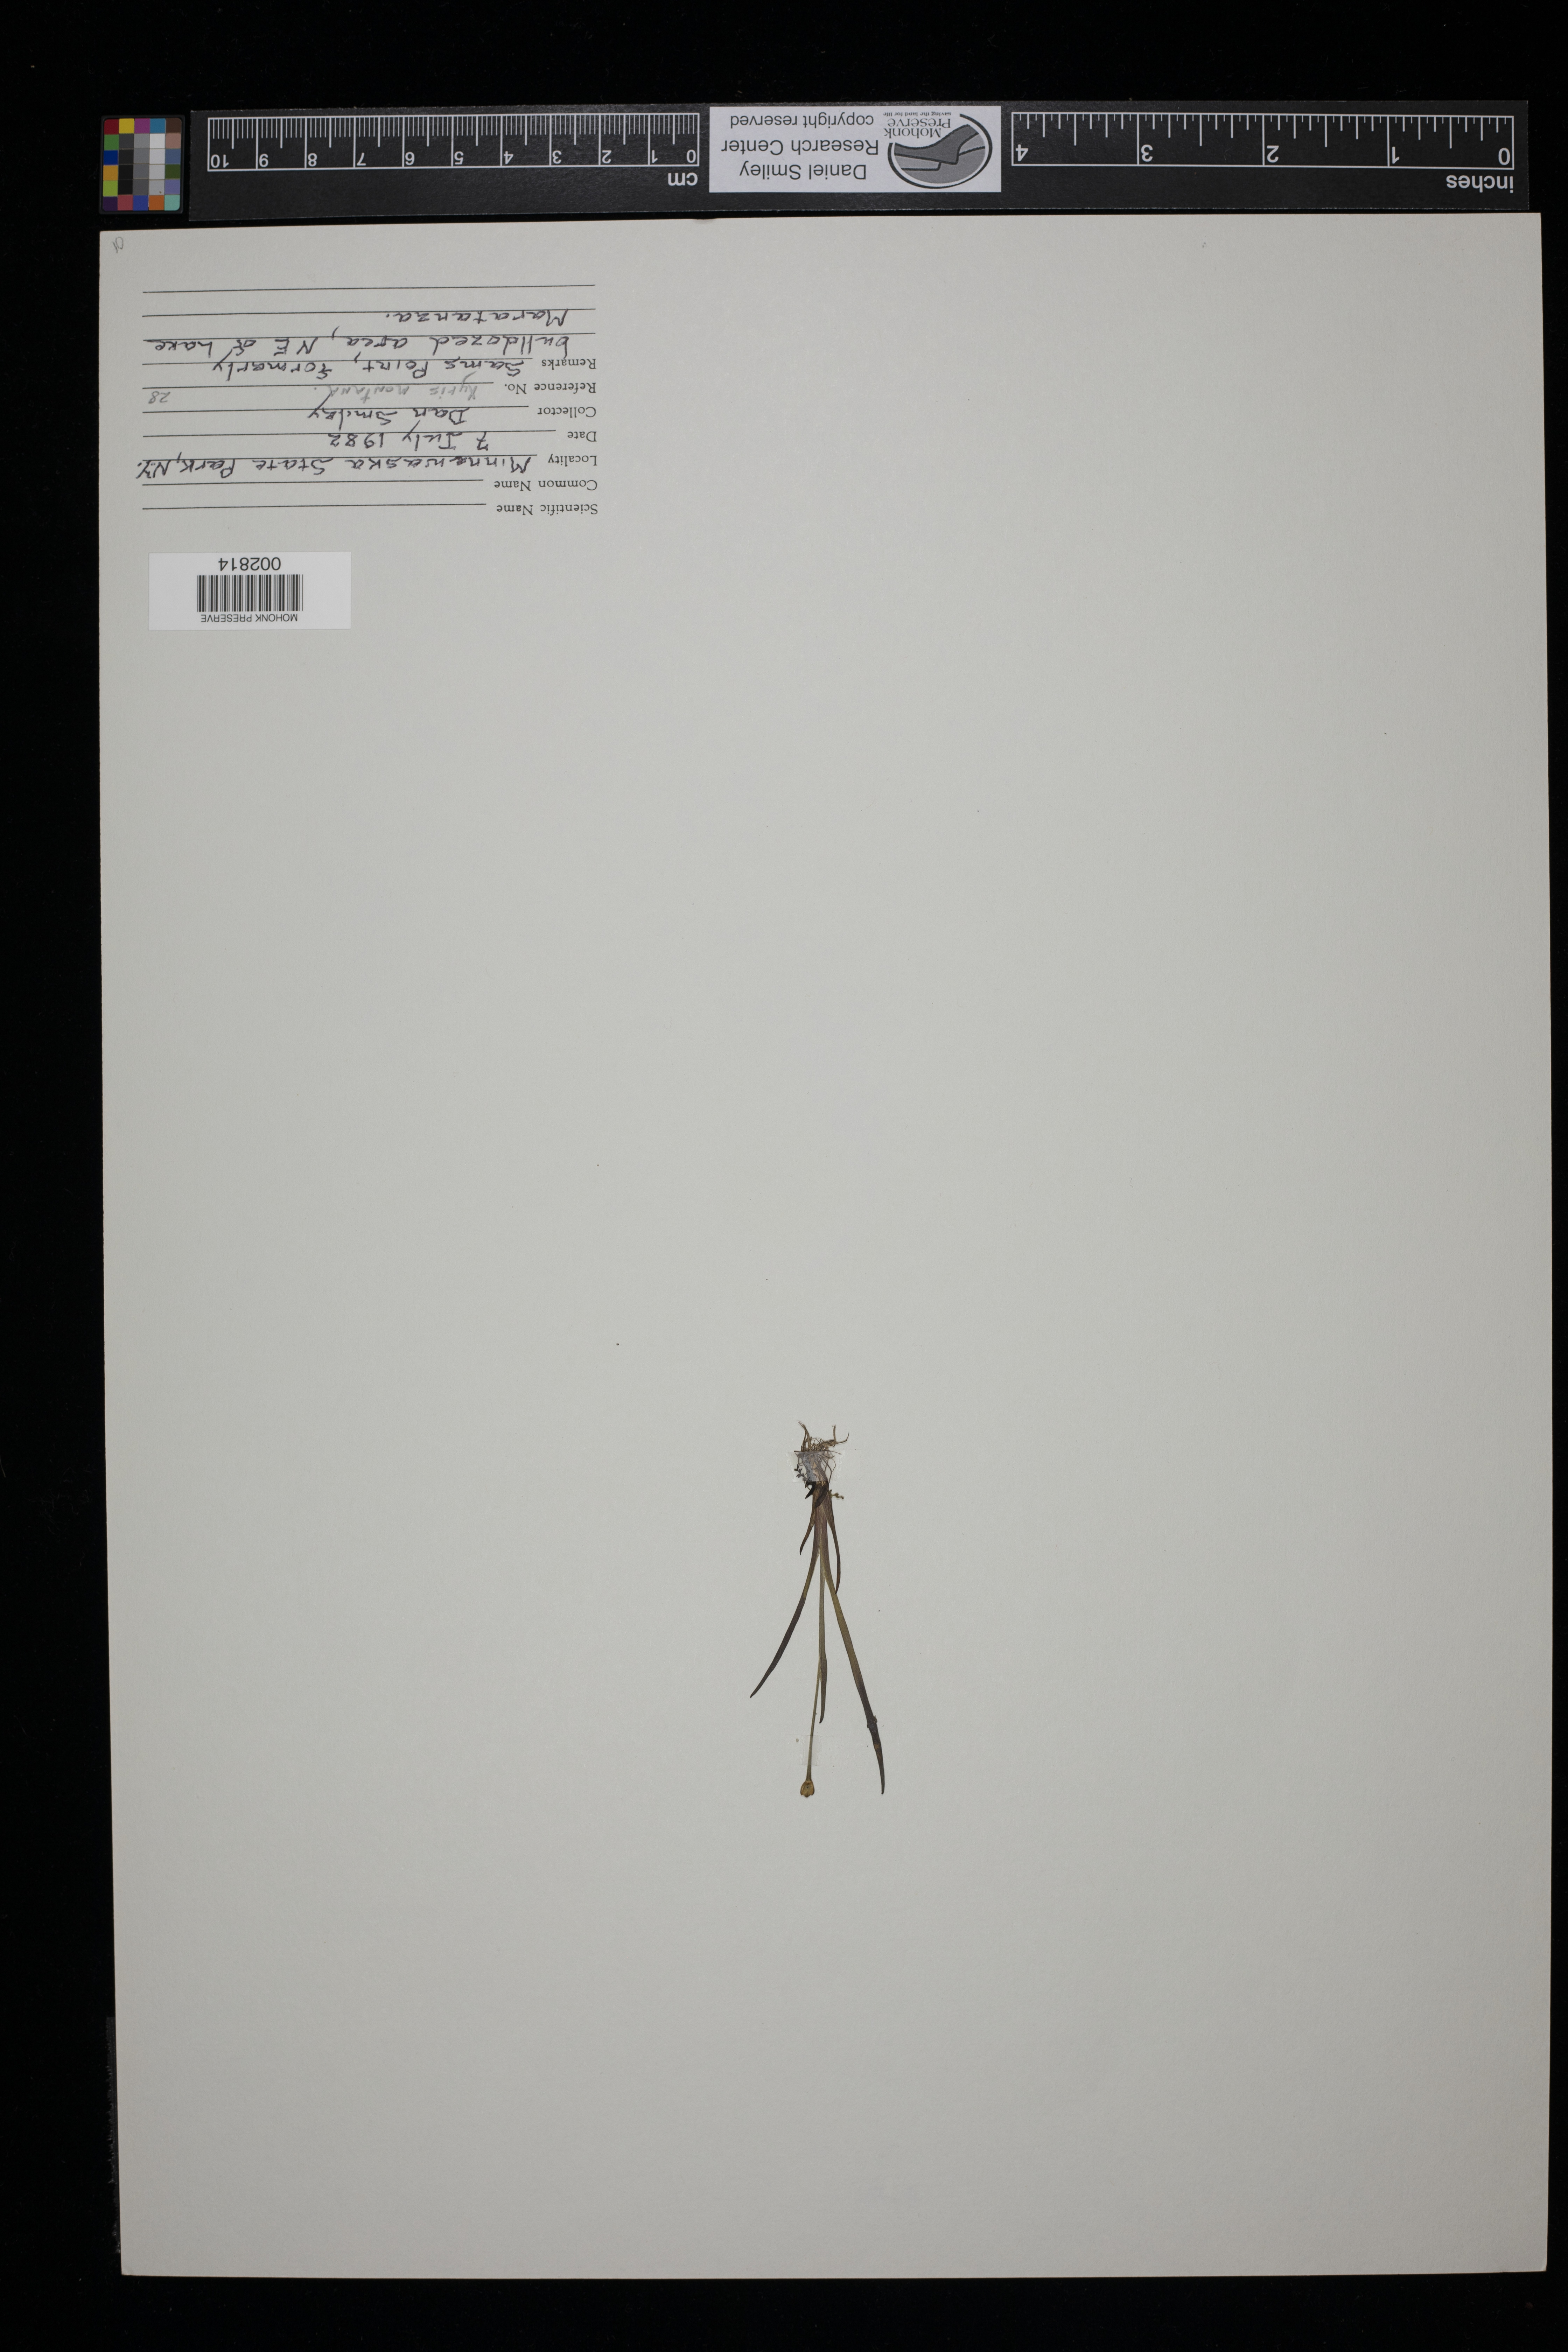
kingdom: Plantae
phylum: Tracheophyta
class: Liliopsida
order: Poales
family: Xyridaceae
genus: Xyris
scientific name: Xyris montana
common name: Northern yellow-eyed-grass
